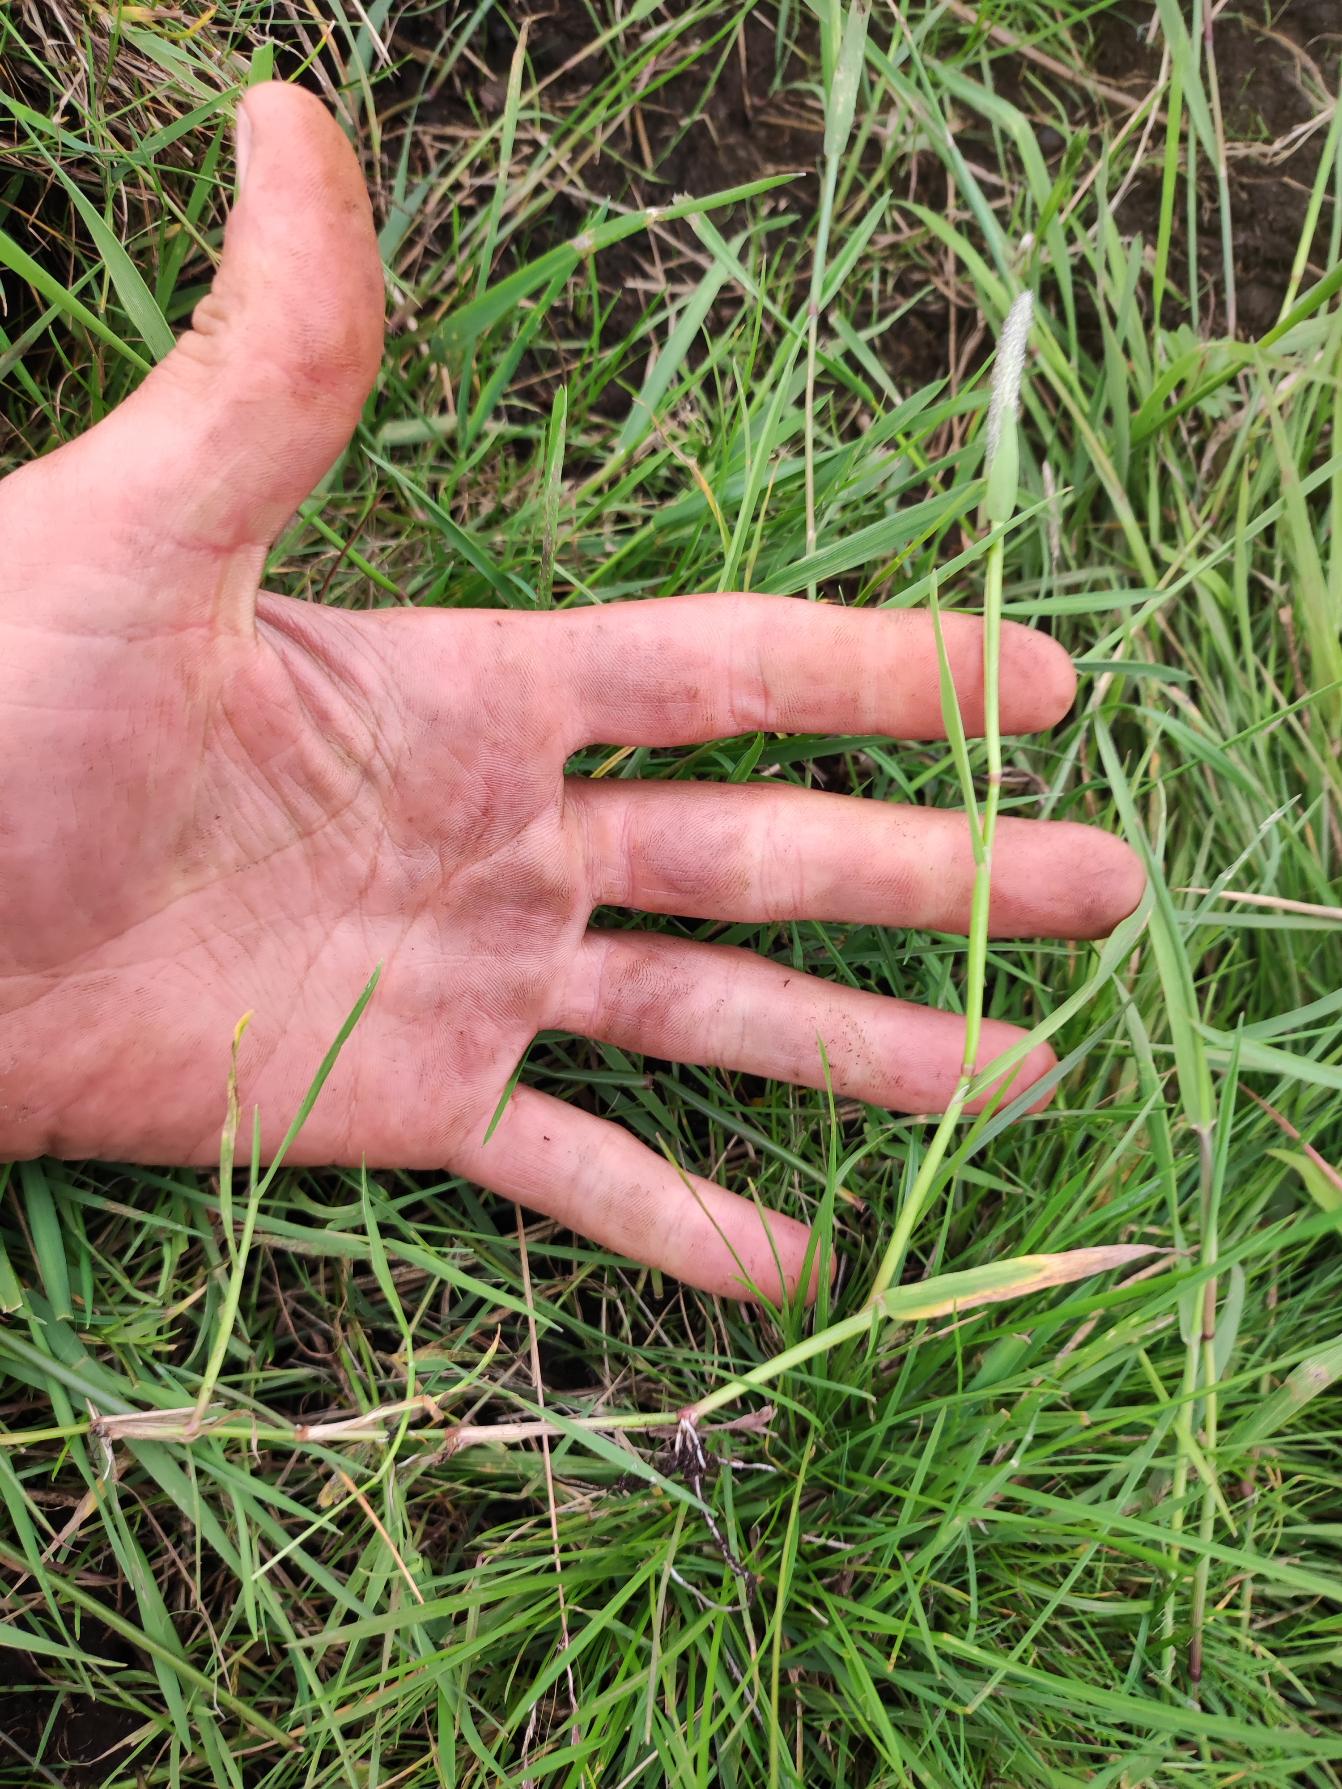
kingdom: Plantae
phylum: Tracheophyta
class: Liliopsida
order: Poales
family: Poaceae
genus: Alopecurus
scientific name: Alopecurus geniculatus
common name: Knæbøjet rævehale
